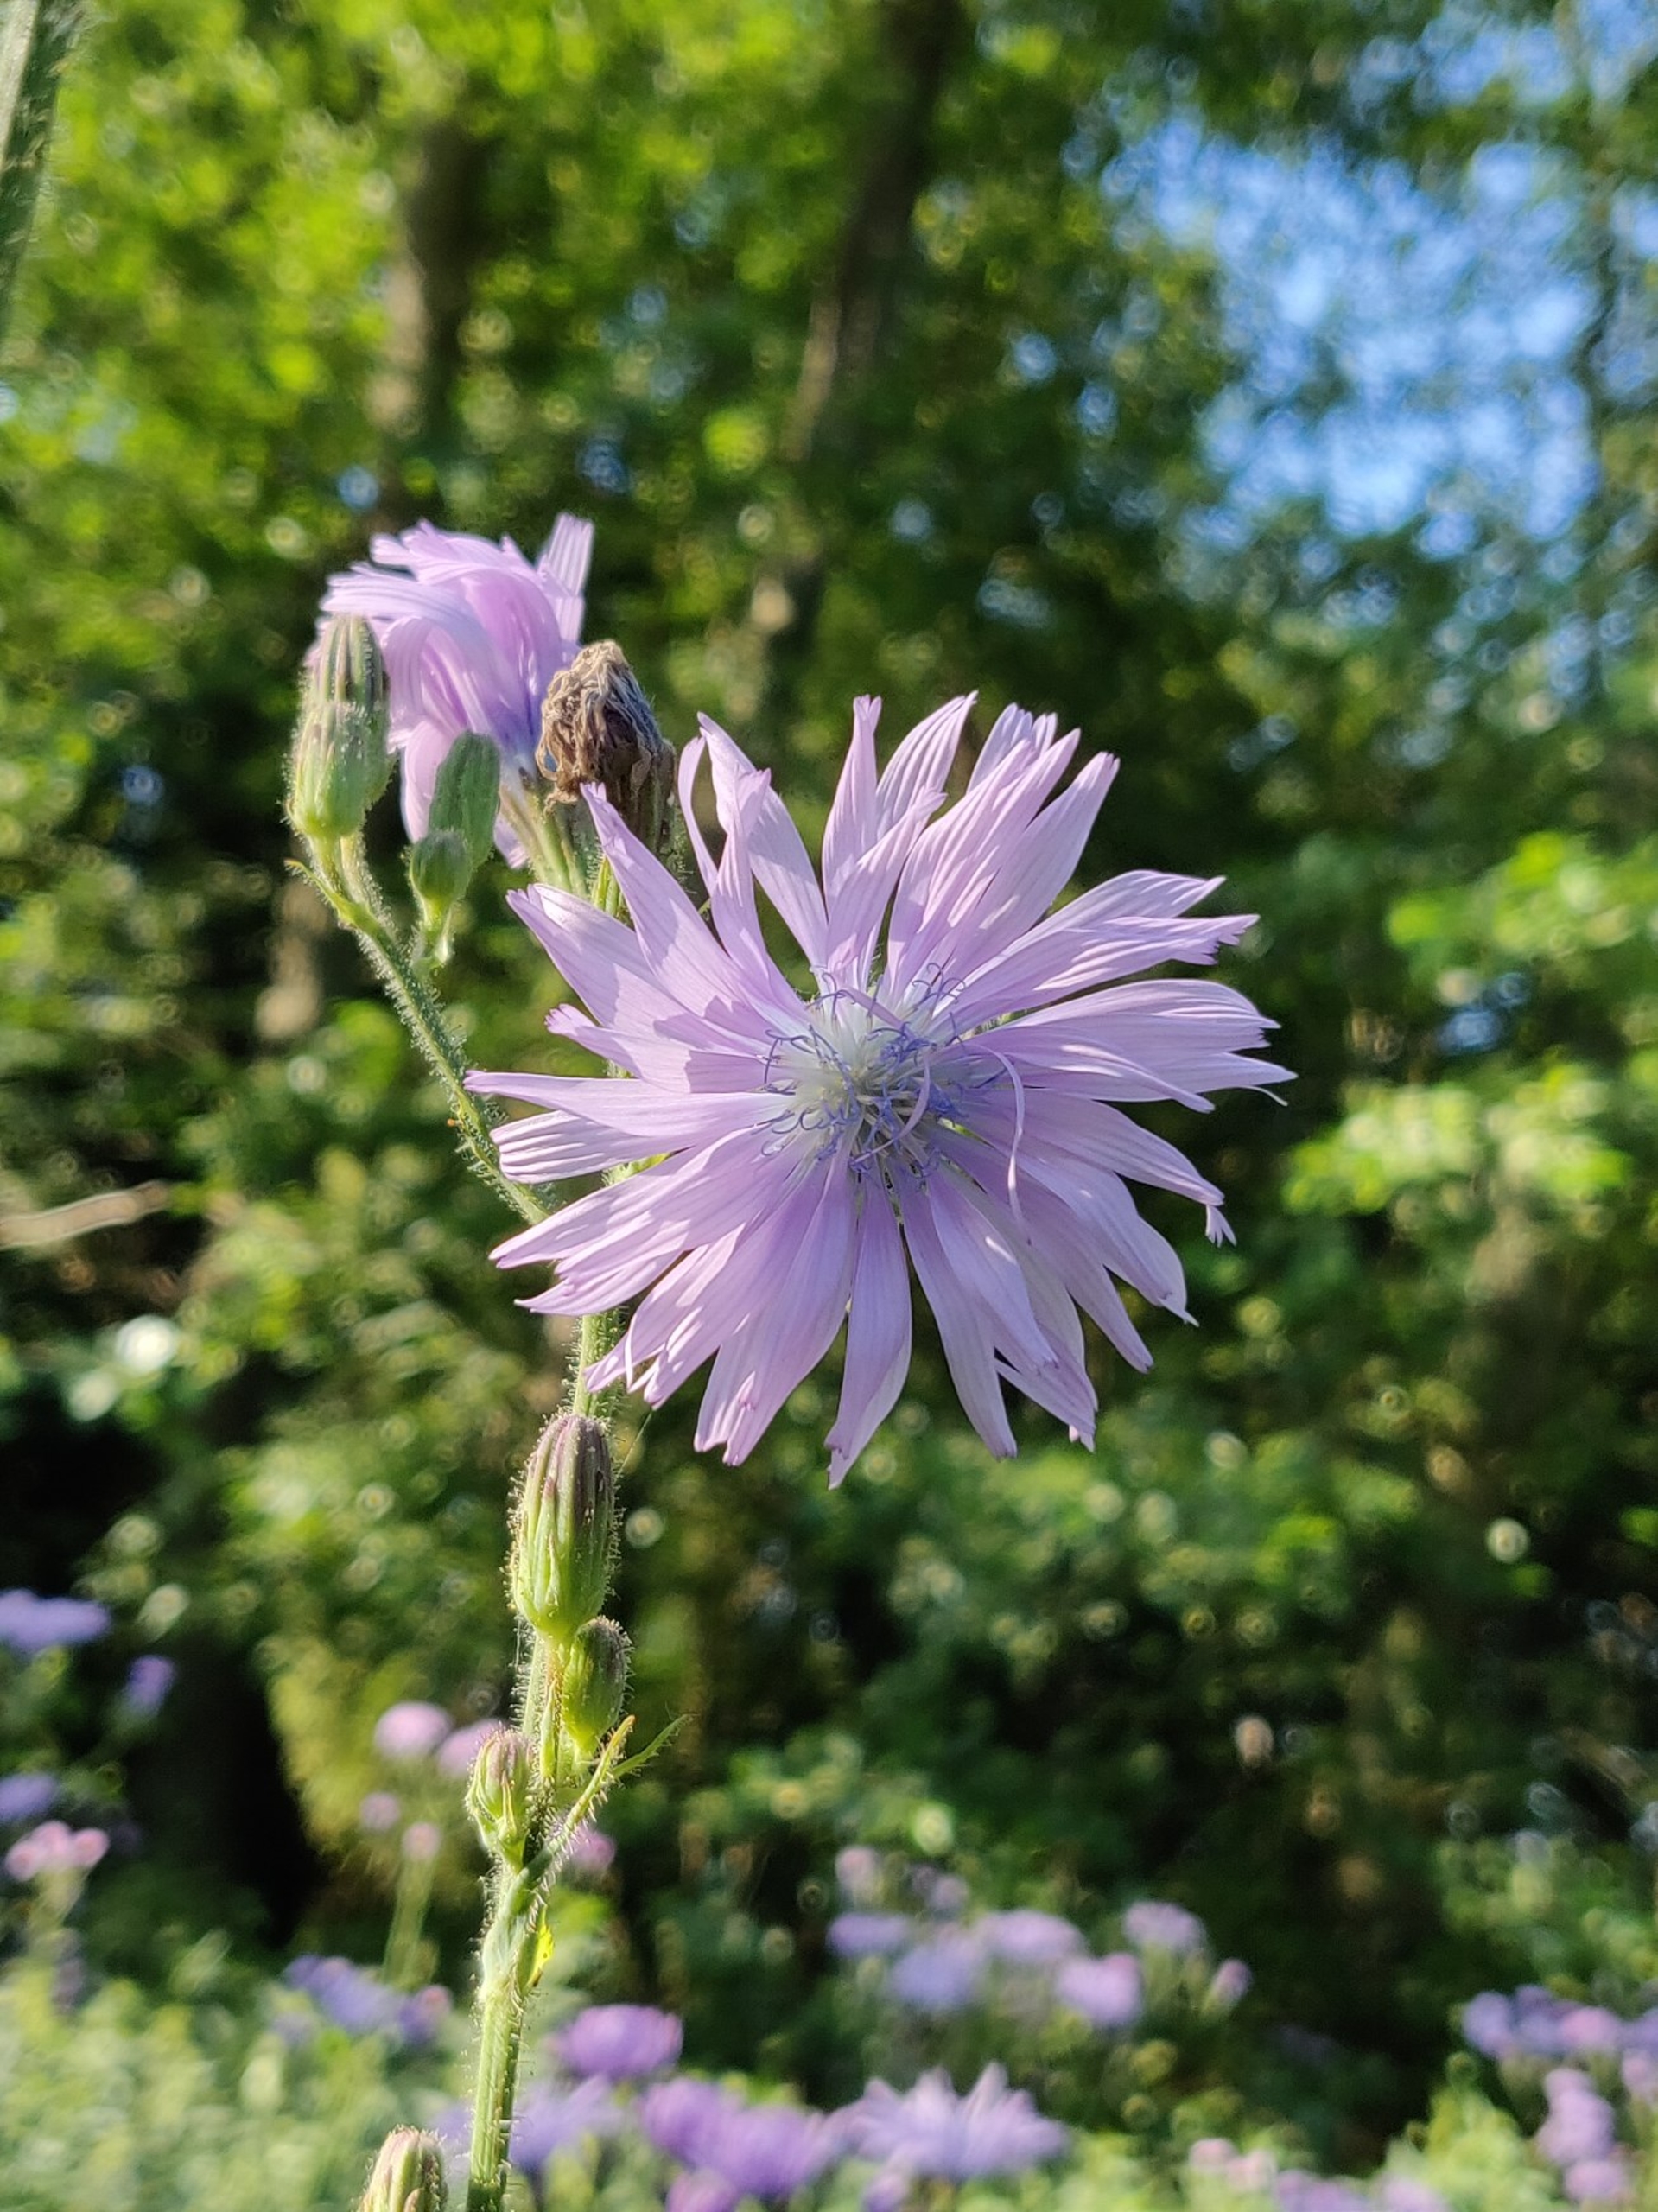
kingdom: Plantae
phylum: Tracheophyta
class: Magnoliopsida
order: Asterales
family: Asteraceae
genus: Lactuca
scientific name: Lactuca macrophylla
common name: Kæmpe-salat
